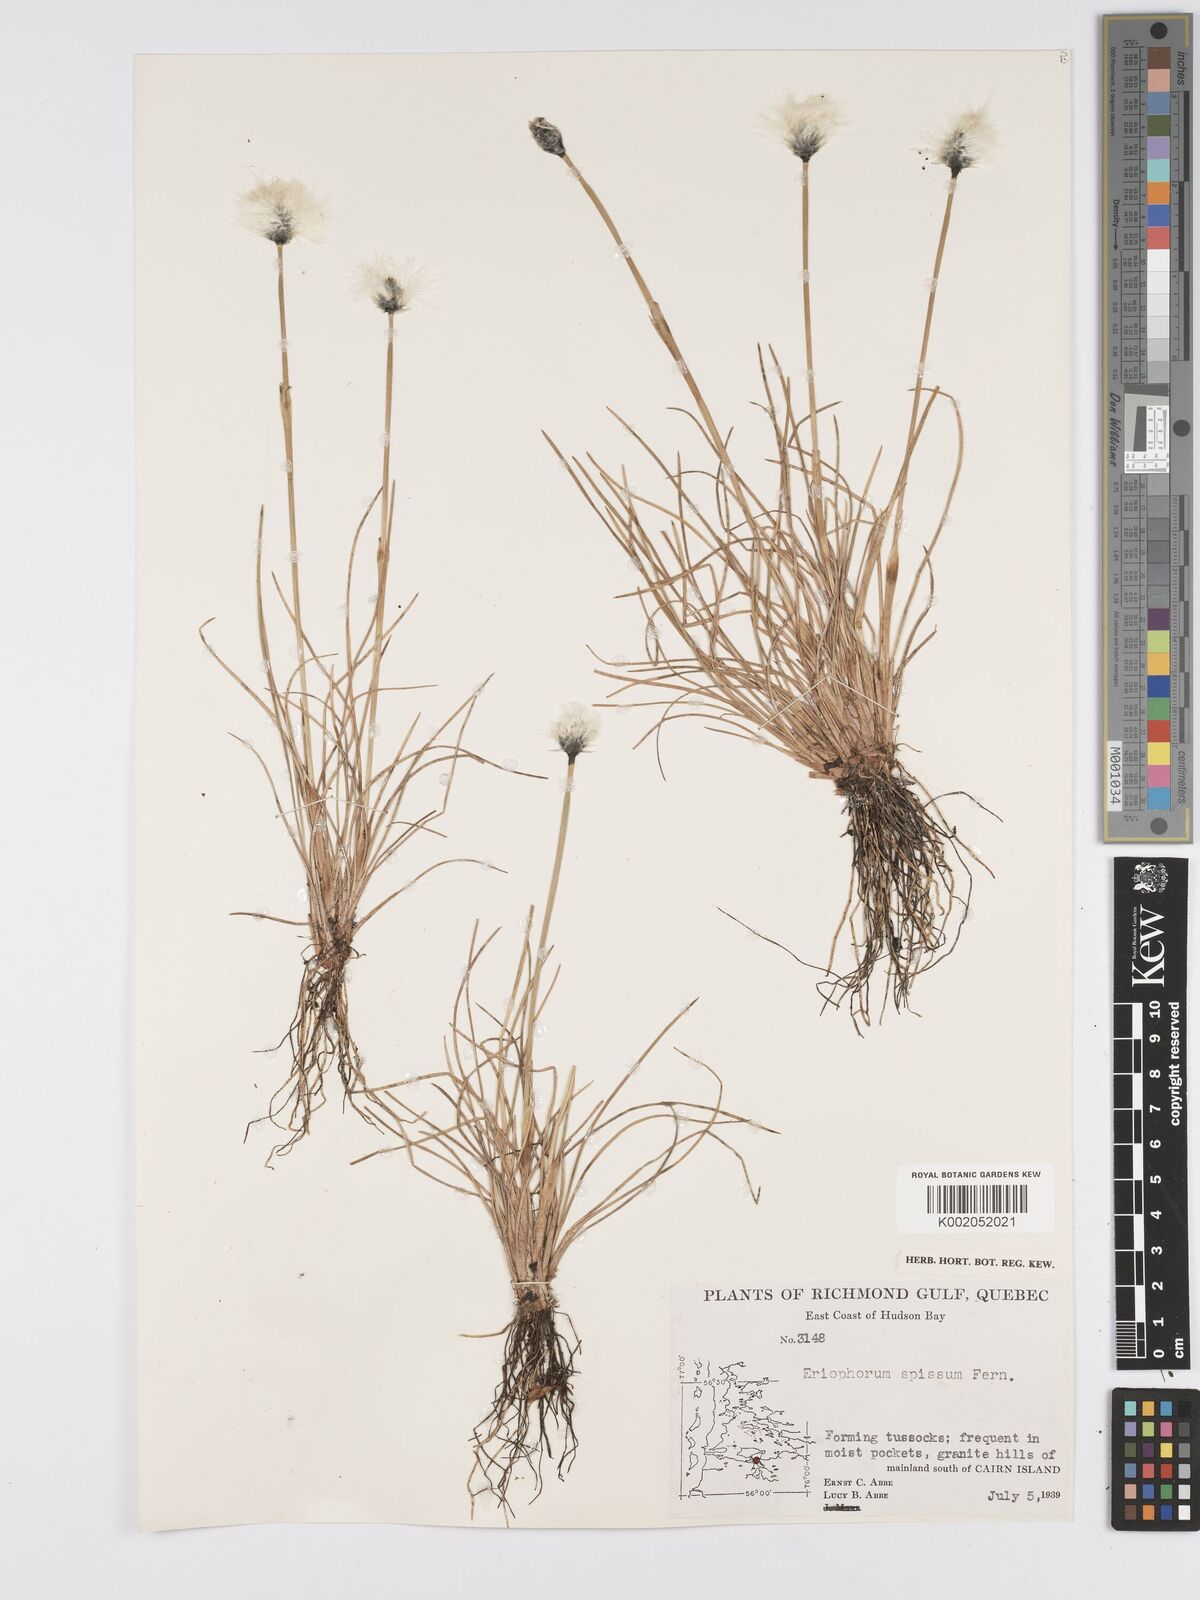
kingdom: Plantae
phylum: Tracheophyta
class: Liliopsida
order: Poales
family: Cyperaceae
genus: Eriophorum
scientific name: Eriophorum vaginatum
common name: Hare's-tail cottongrass
